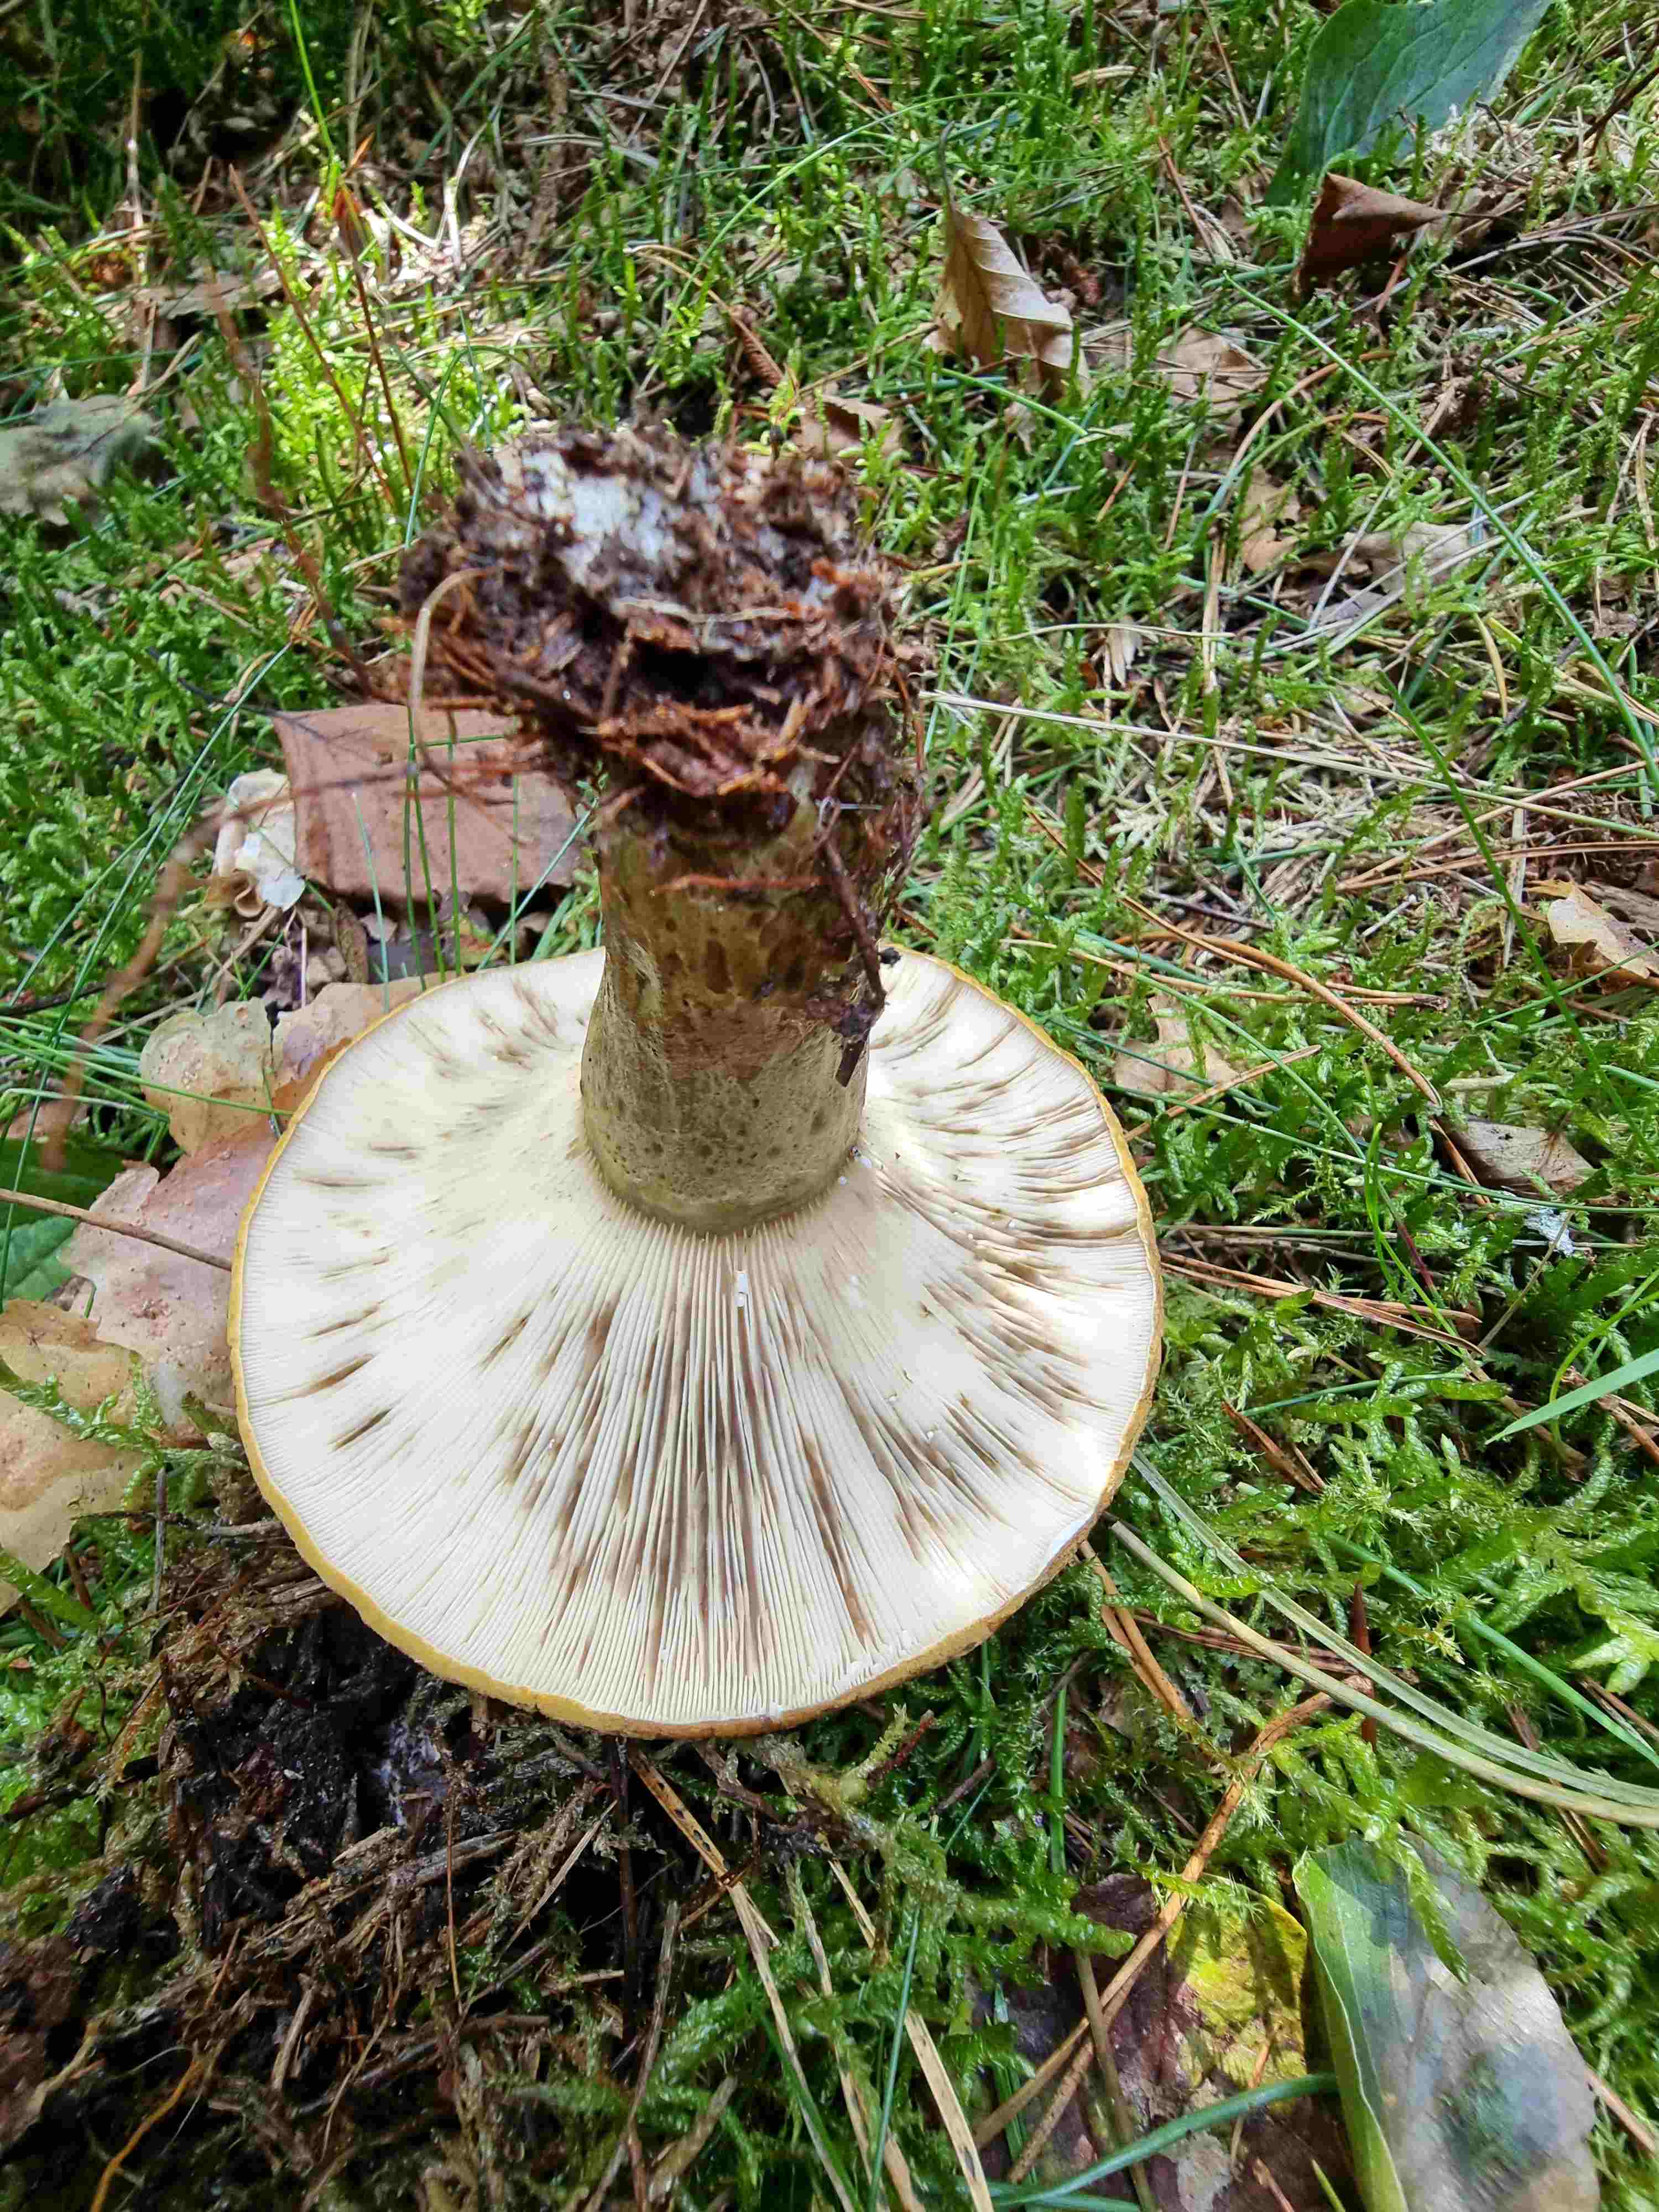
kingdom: Fungi
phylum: Basidiomycota
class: Agaricomycetes
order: Russulales
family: Russulaceae
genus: Lactarius
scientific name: Lactarius necator
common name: manddraber-mælkehat
